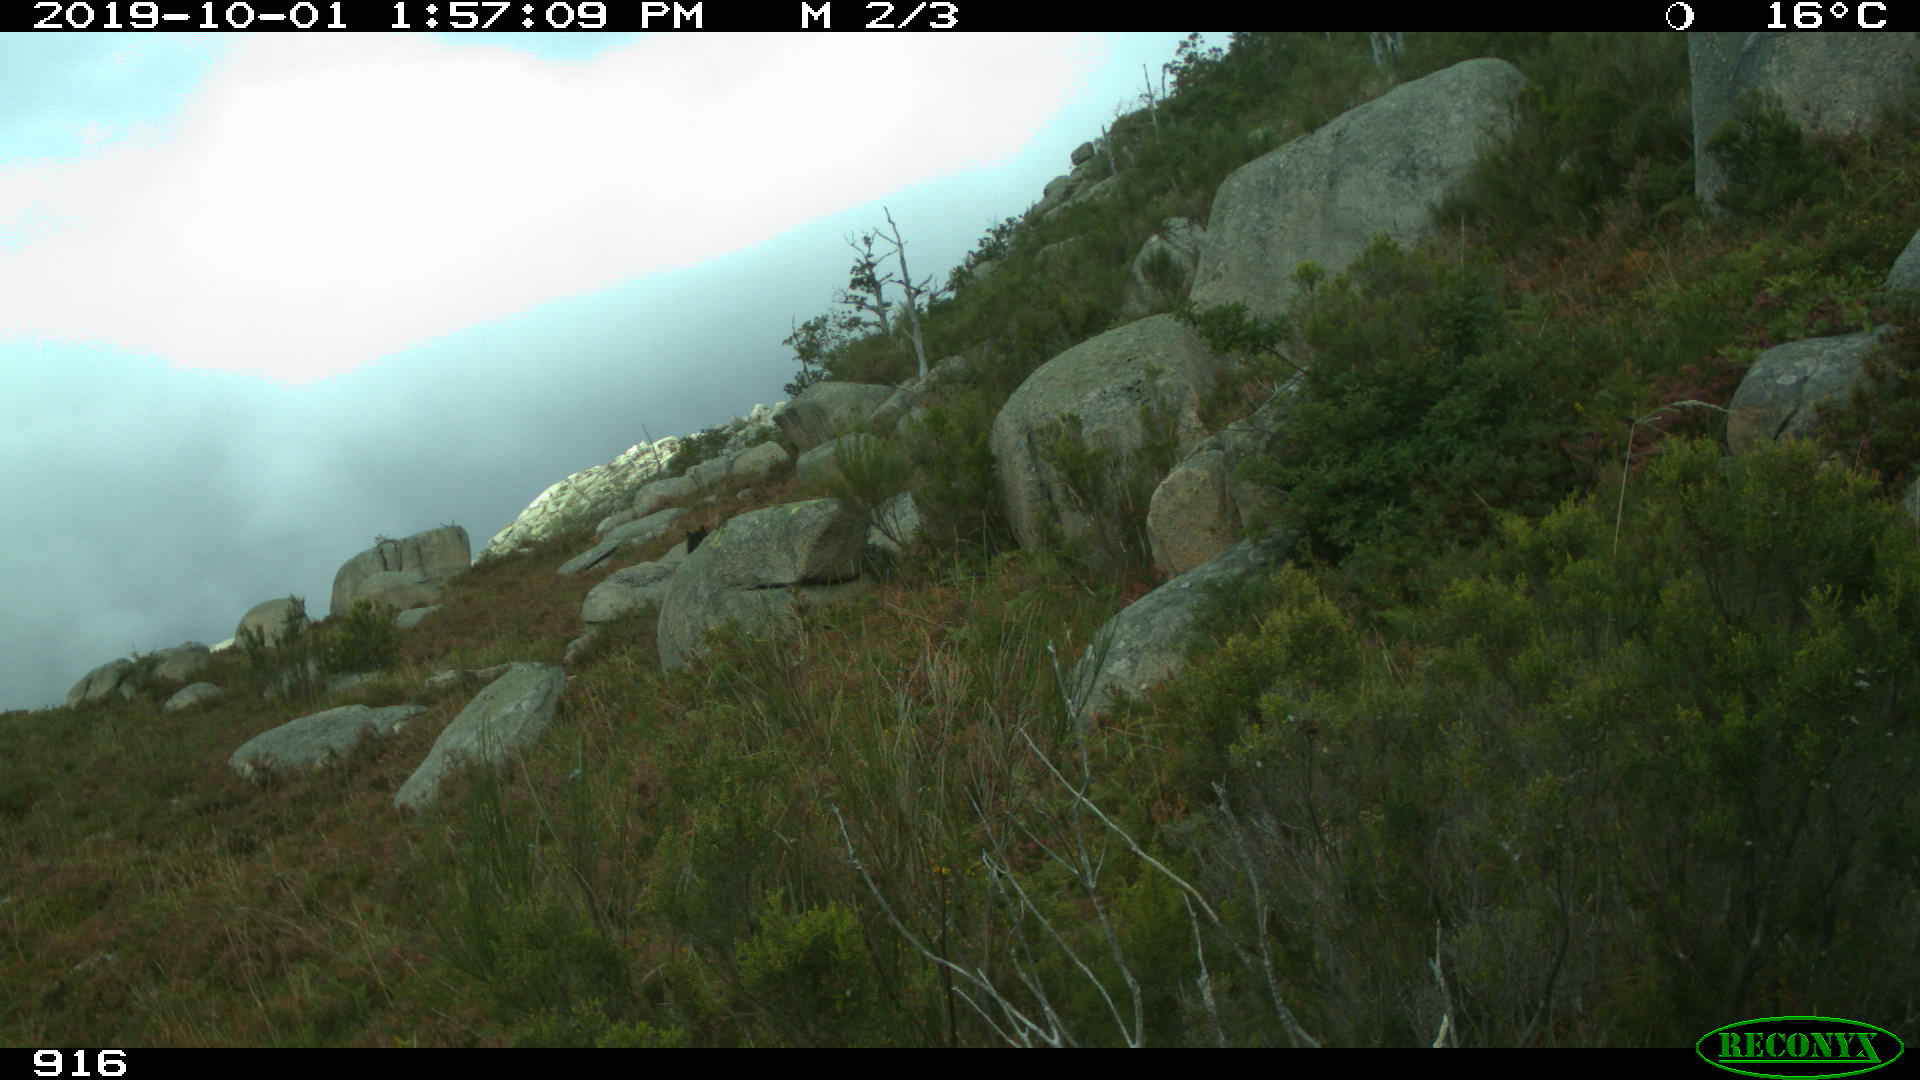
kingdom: Animalia
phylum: Chordata
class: Mammalia
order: Perissodactyla
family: Equidae
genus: Equus
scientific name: Equus caballus
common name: Horse
